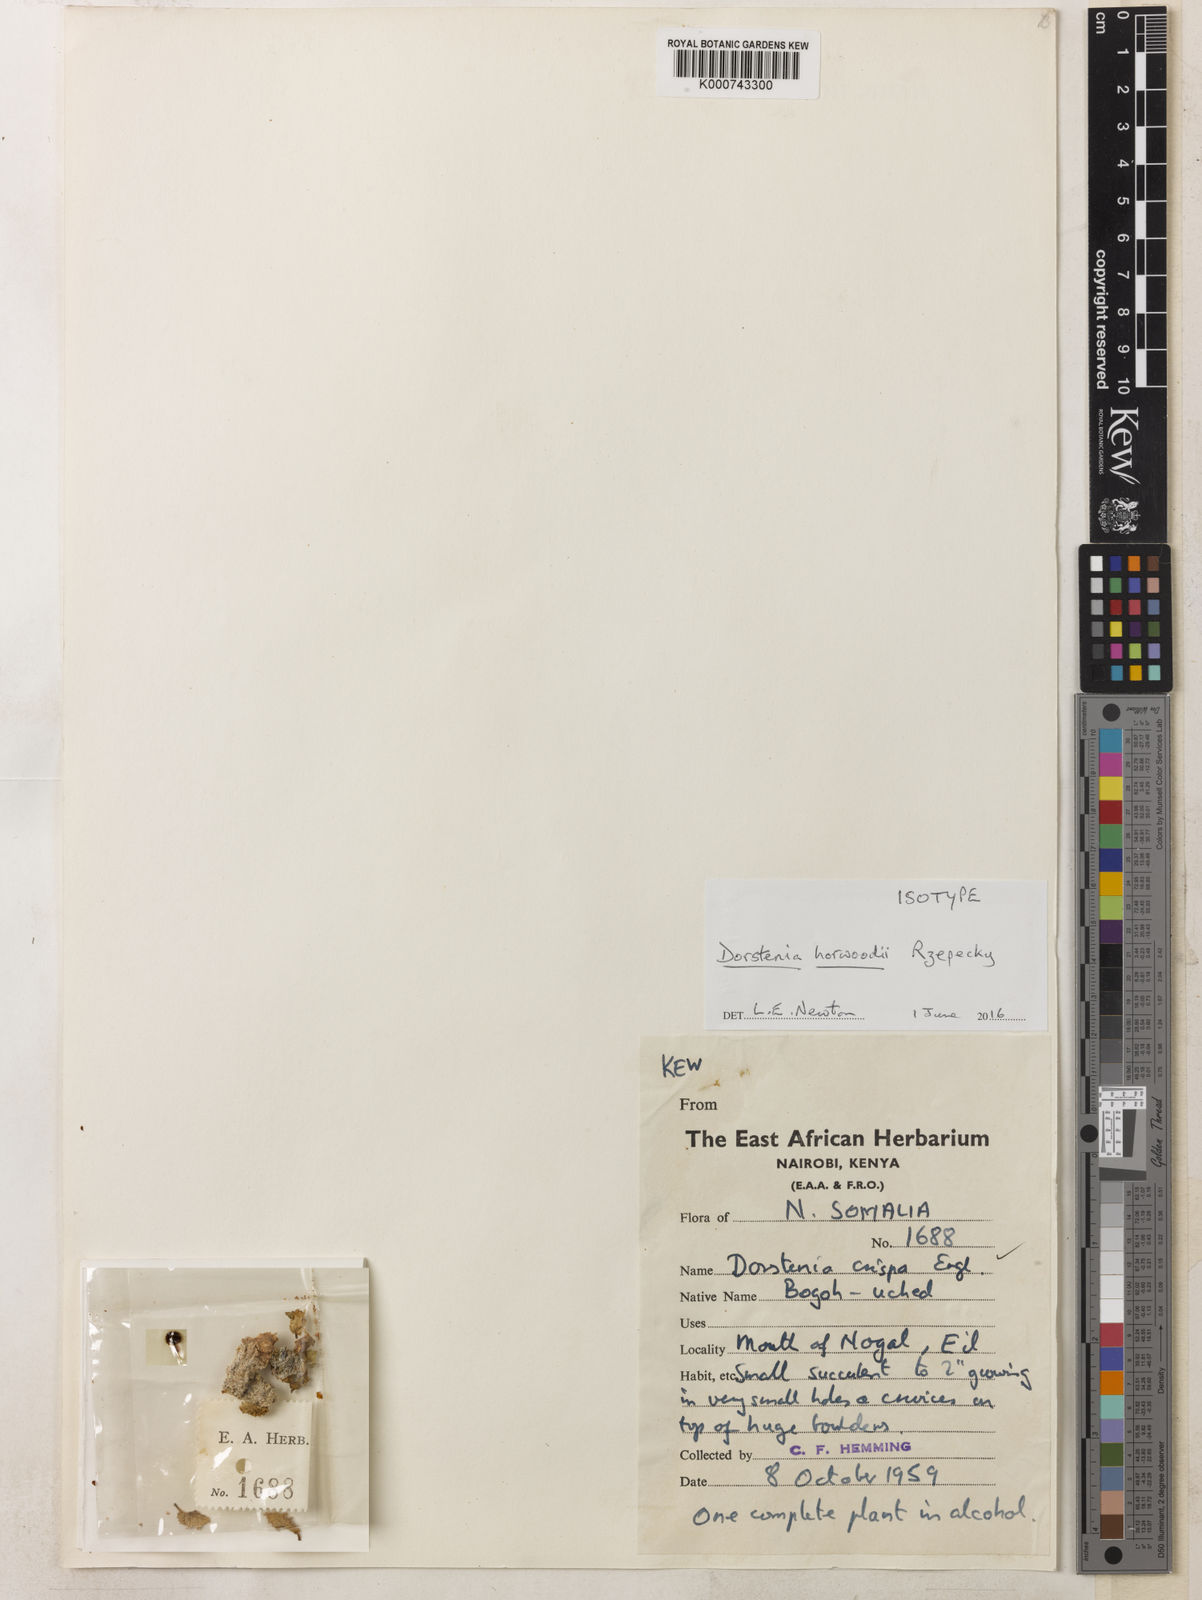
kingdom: Plantae
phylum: Tracheophyta
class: Magnoliopsida
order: Rosales
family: Moraceae
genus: Dorstenia
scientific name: Dorstenia horwoodii
